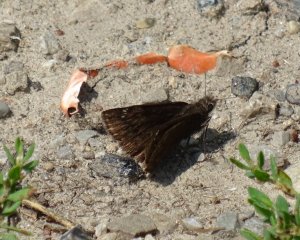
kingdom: Animalia
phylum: Arthropoda
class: Insecta
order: Lepidoptera
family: Hesperiidae
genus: Gesta
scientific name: Gesta
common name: Wild Indigo Duskywing
